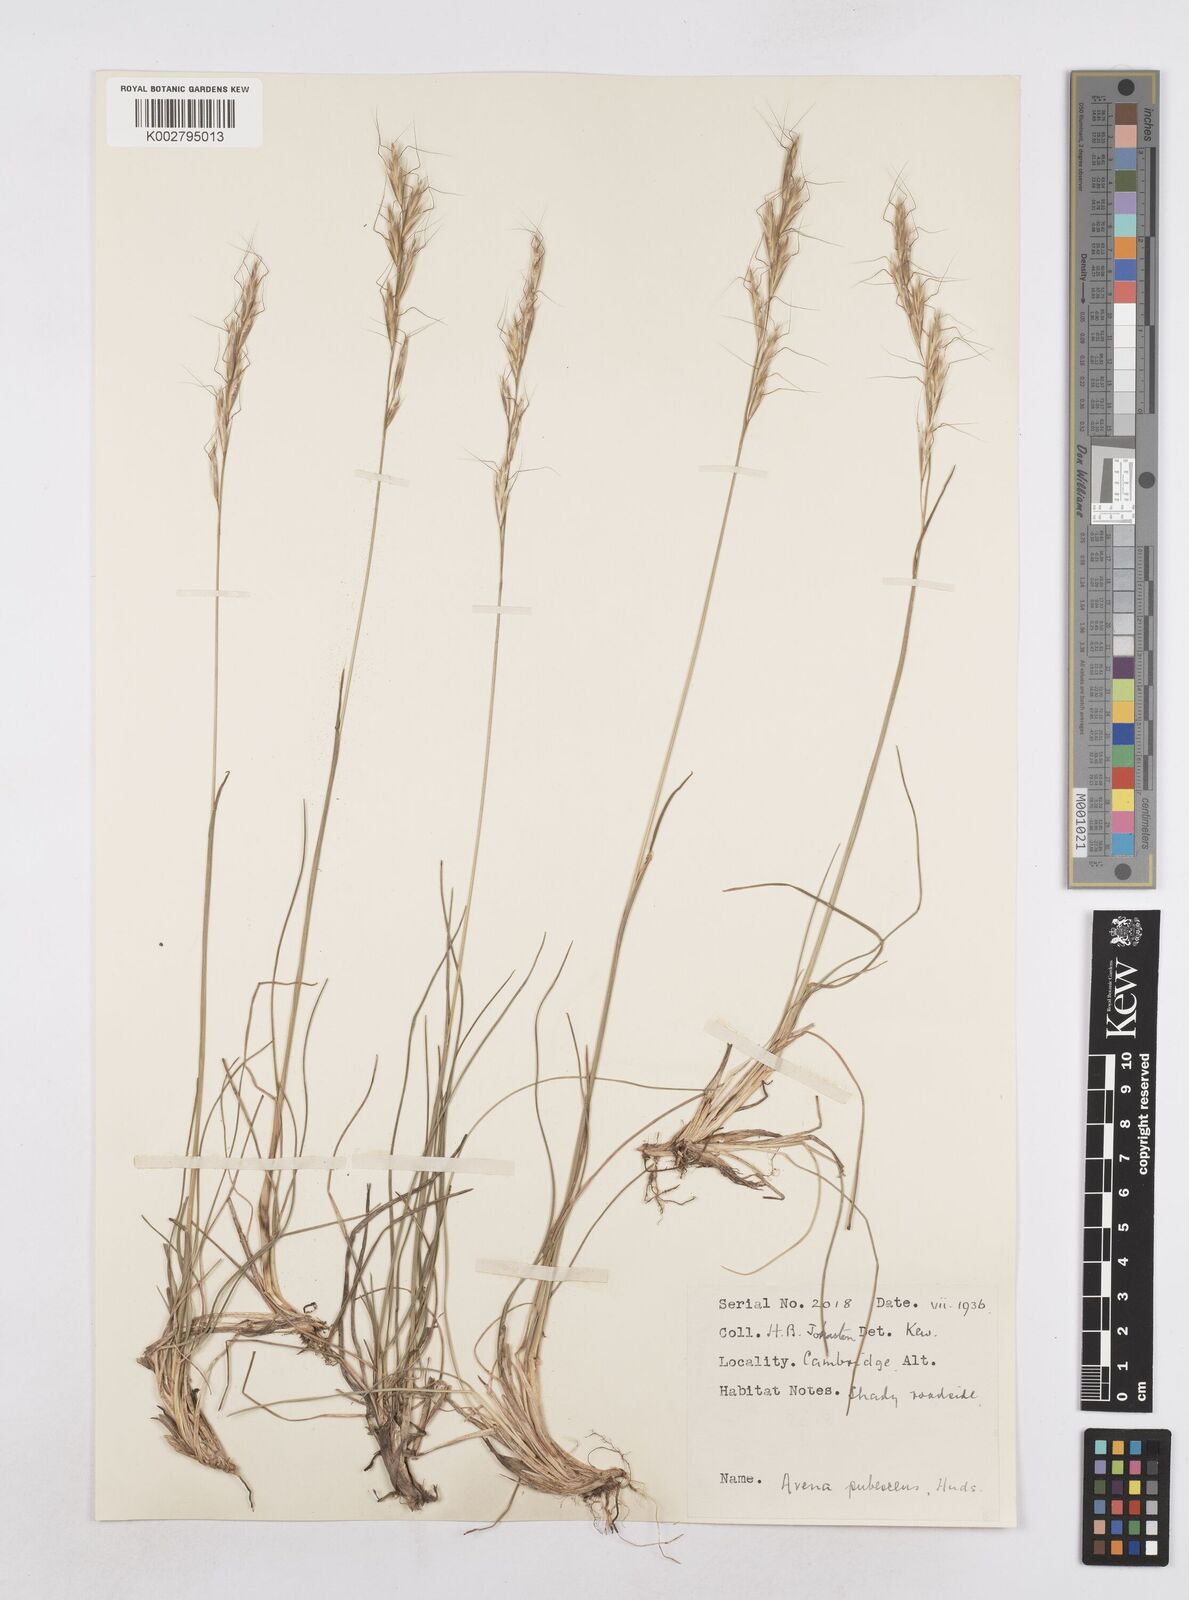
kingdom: Plantae
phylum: Tracheophyta
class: Liliopsida
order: Poales
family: Poaceae
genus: Helictochloa
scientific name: Helictochloa pratensis
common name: Meadow oat grass
